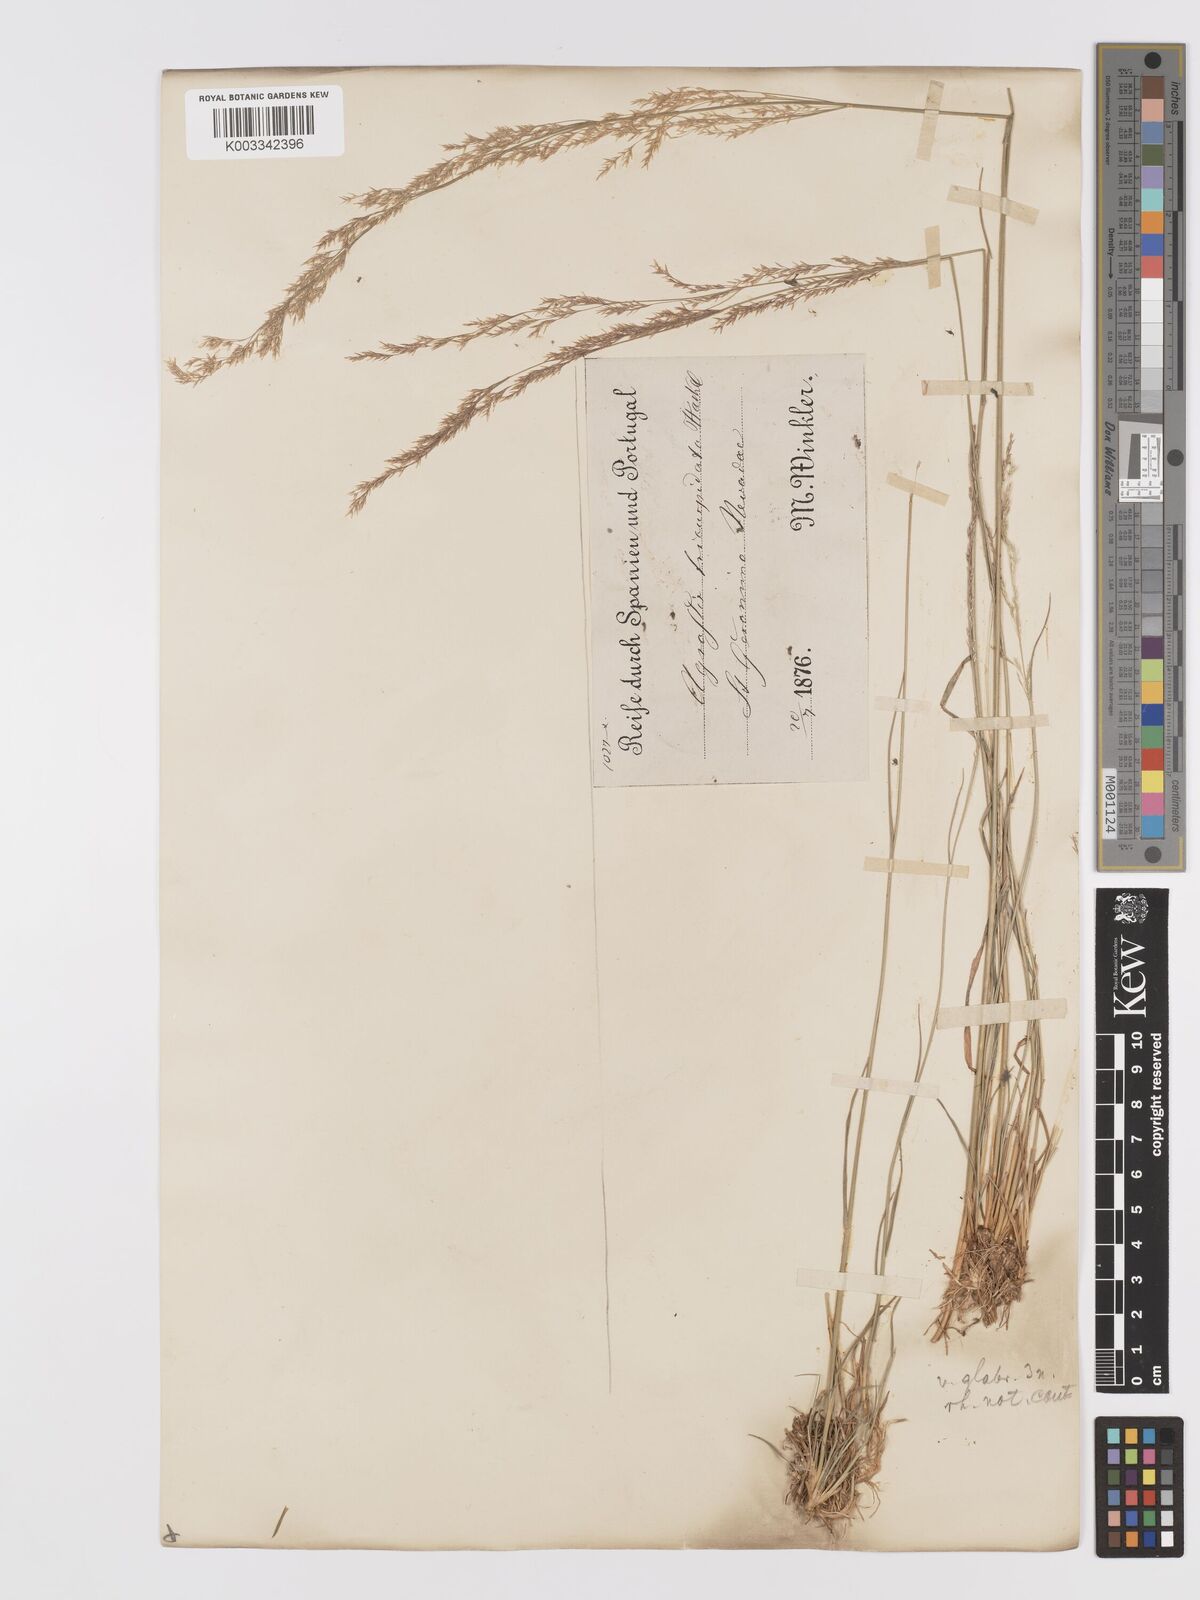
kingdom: Plantae
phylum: Tracheophyta
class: Liliopsida
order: Poales
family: Poaceae
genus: Agrostis
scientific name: Agrostis castellana
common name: Highland bent
